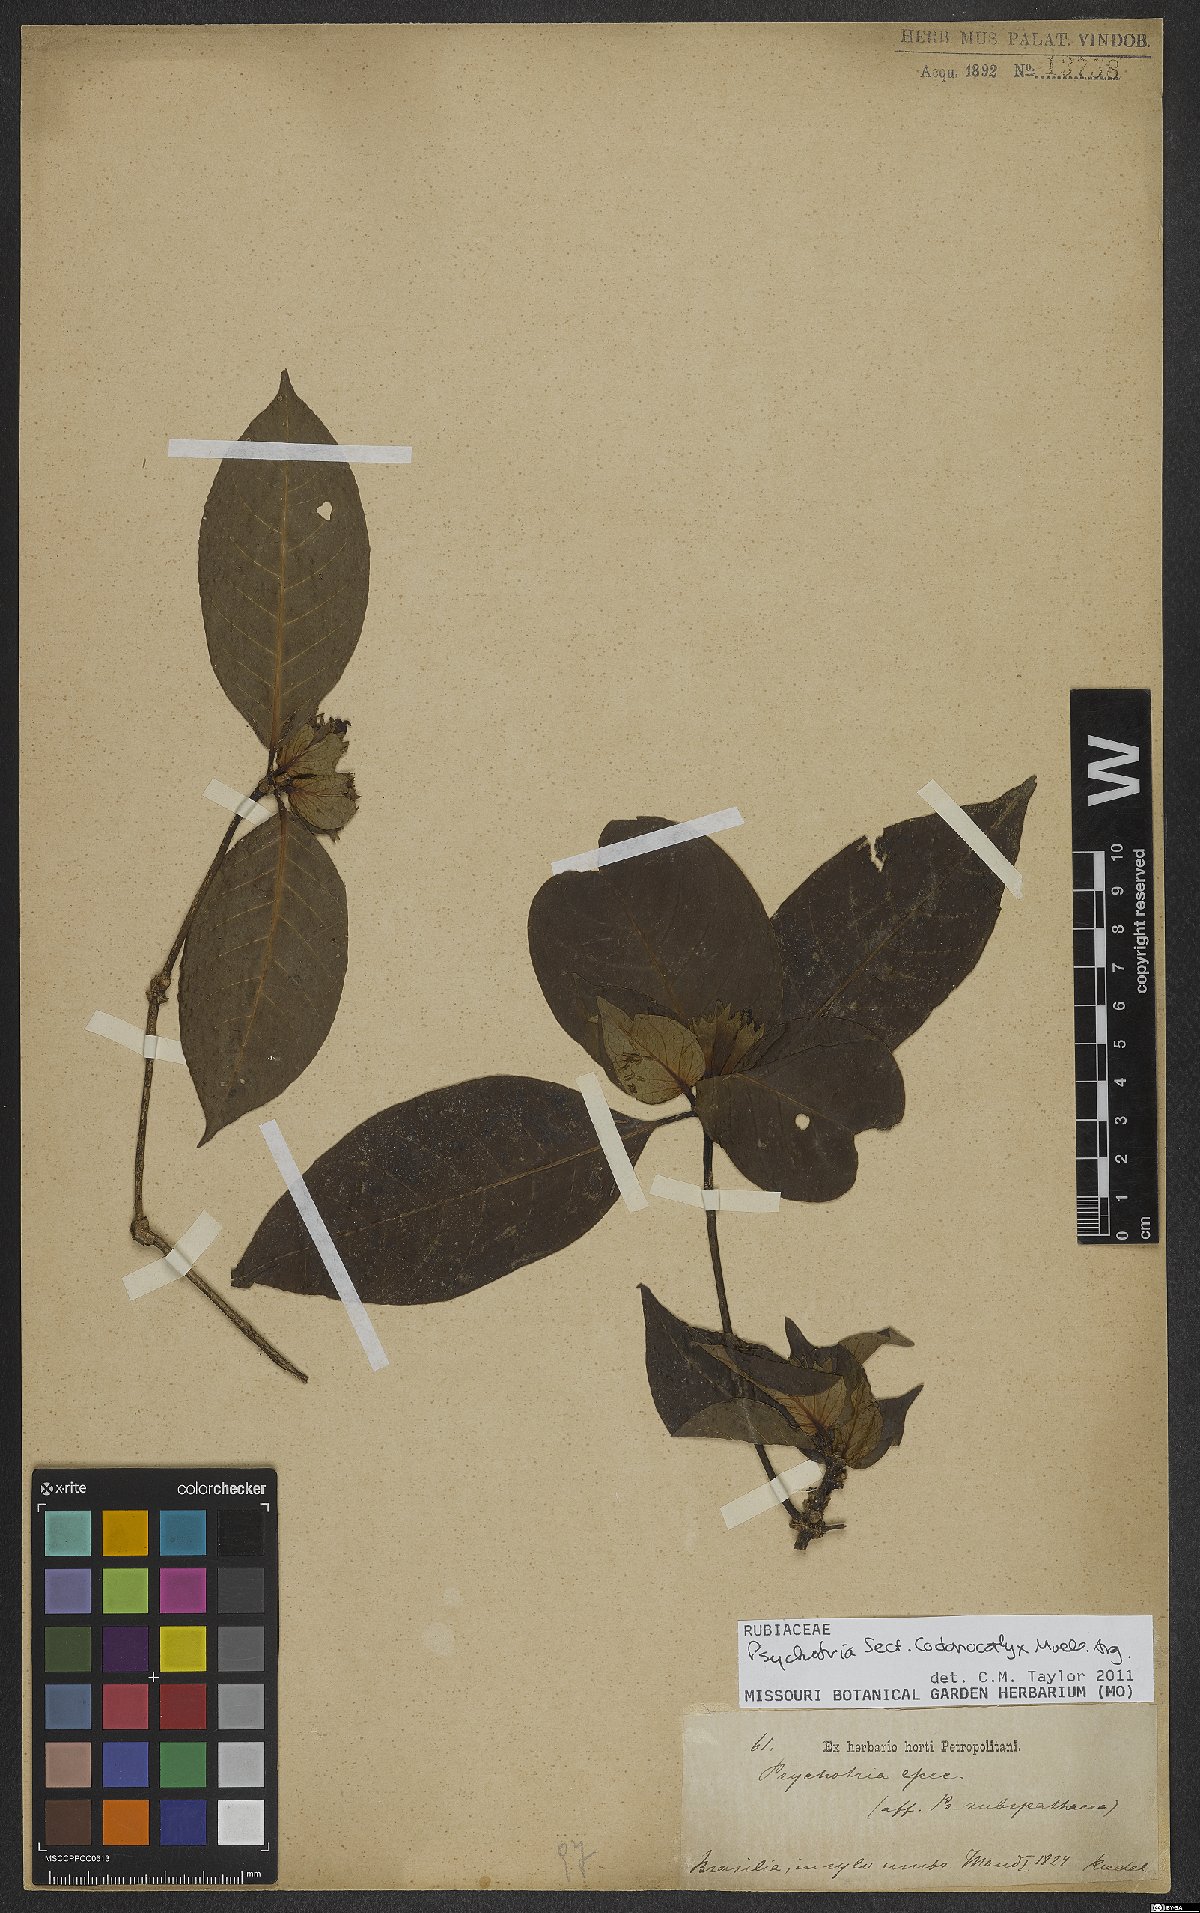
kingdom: Plantae
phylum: Tracheophyta
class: Magnoliopsida
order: Gentianales
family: Rubiaceae
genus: Psychotria
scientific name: Psychotria
